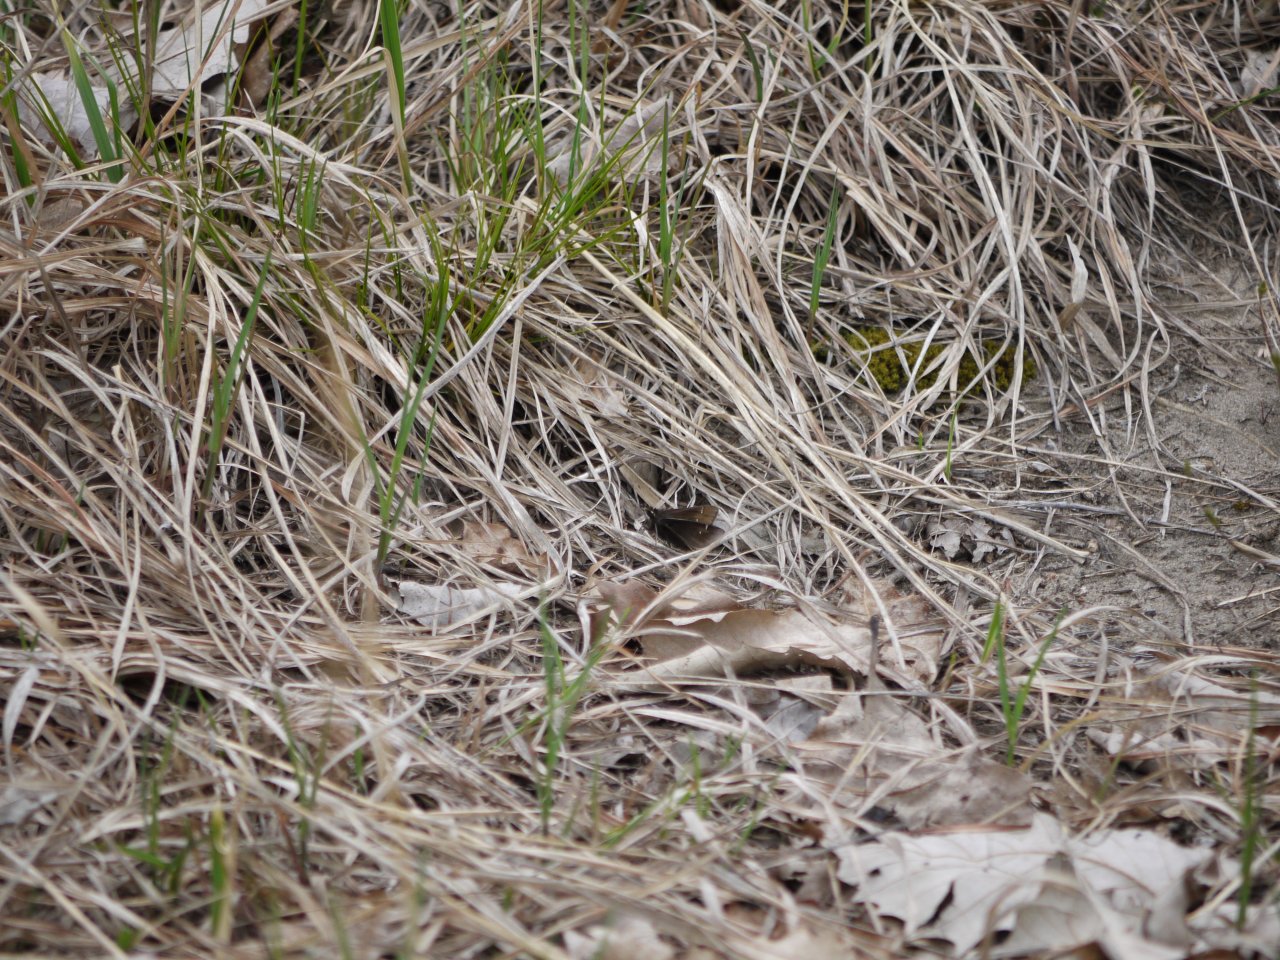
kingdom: Animalia
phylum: Arthropoda
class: Insecta
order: Lepidoptera
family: Hesperiidae
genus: Atrytonopsis
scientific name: Atrytonopsis hianna
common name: Dusted Skipper
